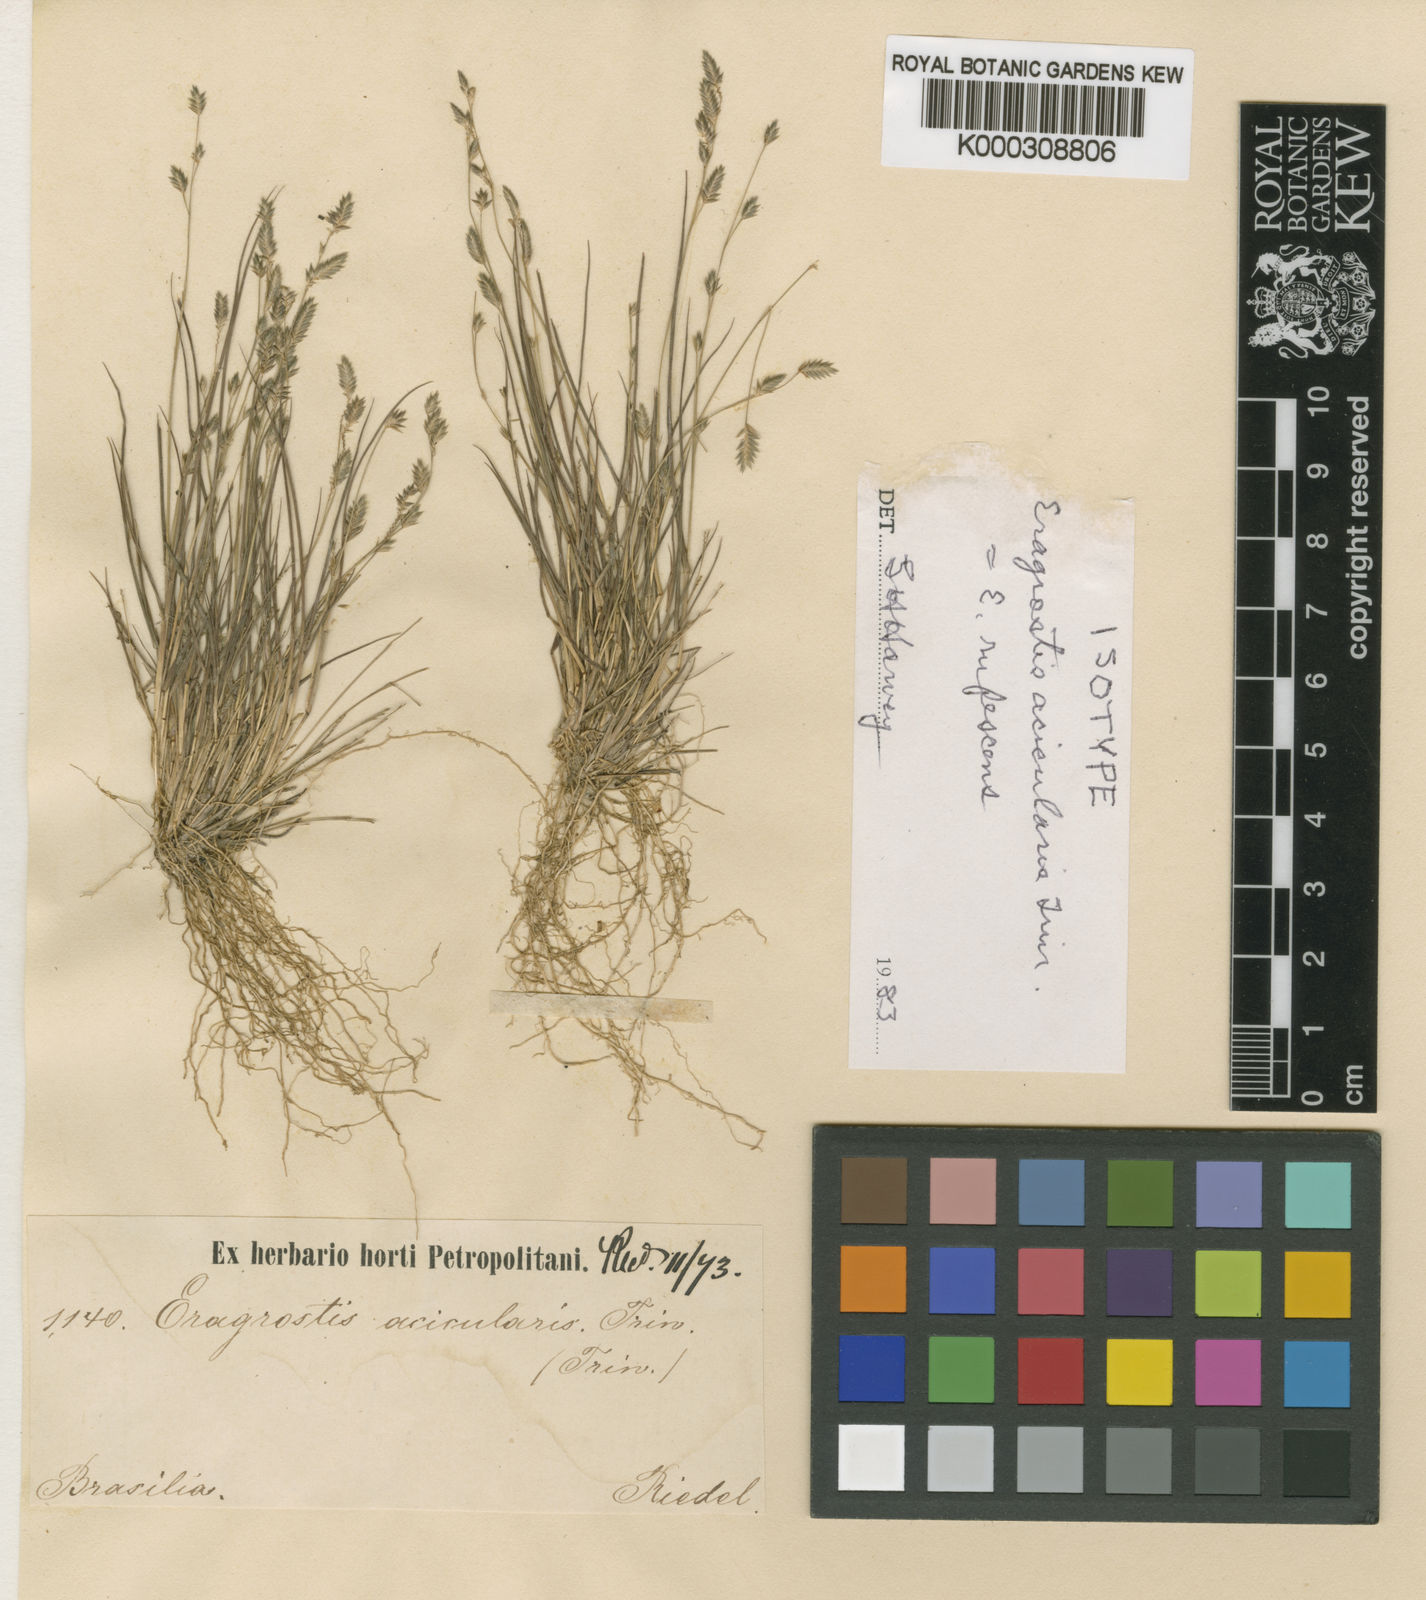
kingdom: Plantae
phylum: Tracheophyta
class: Liliopsida
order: Poales
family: Poaceae
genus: Eragrostis
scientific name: Eragrostis rufescens
